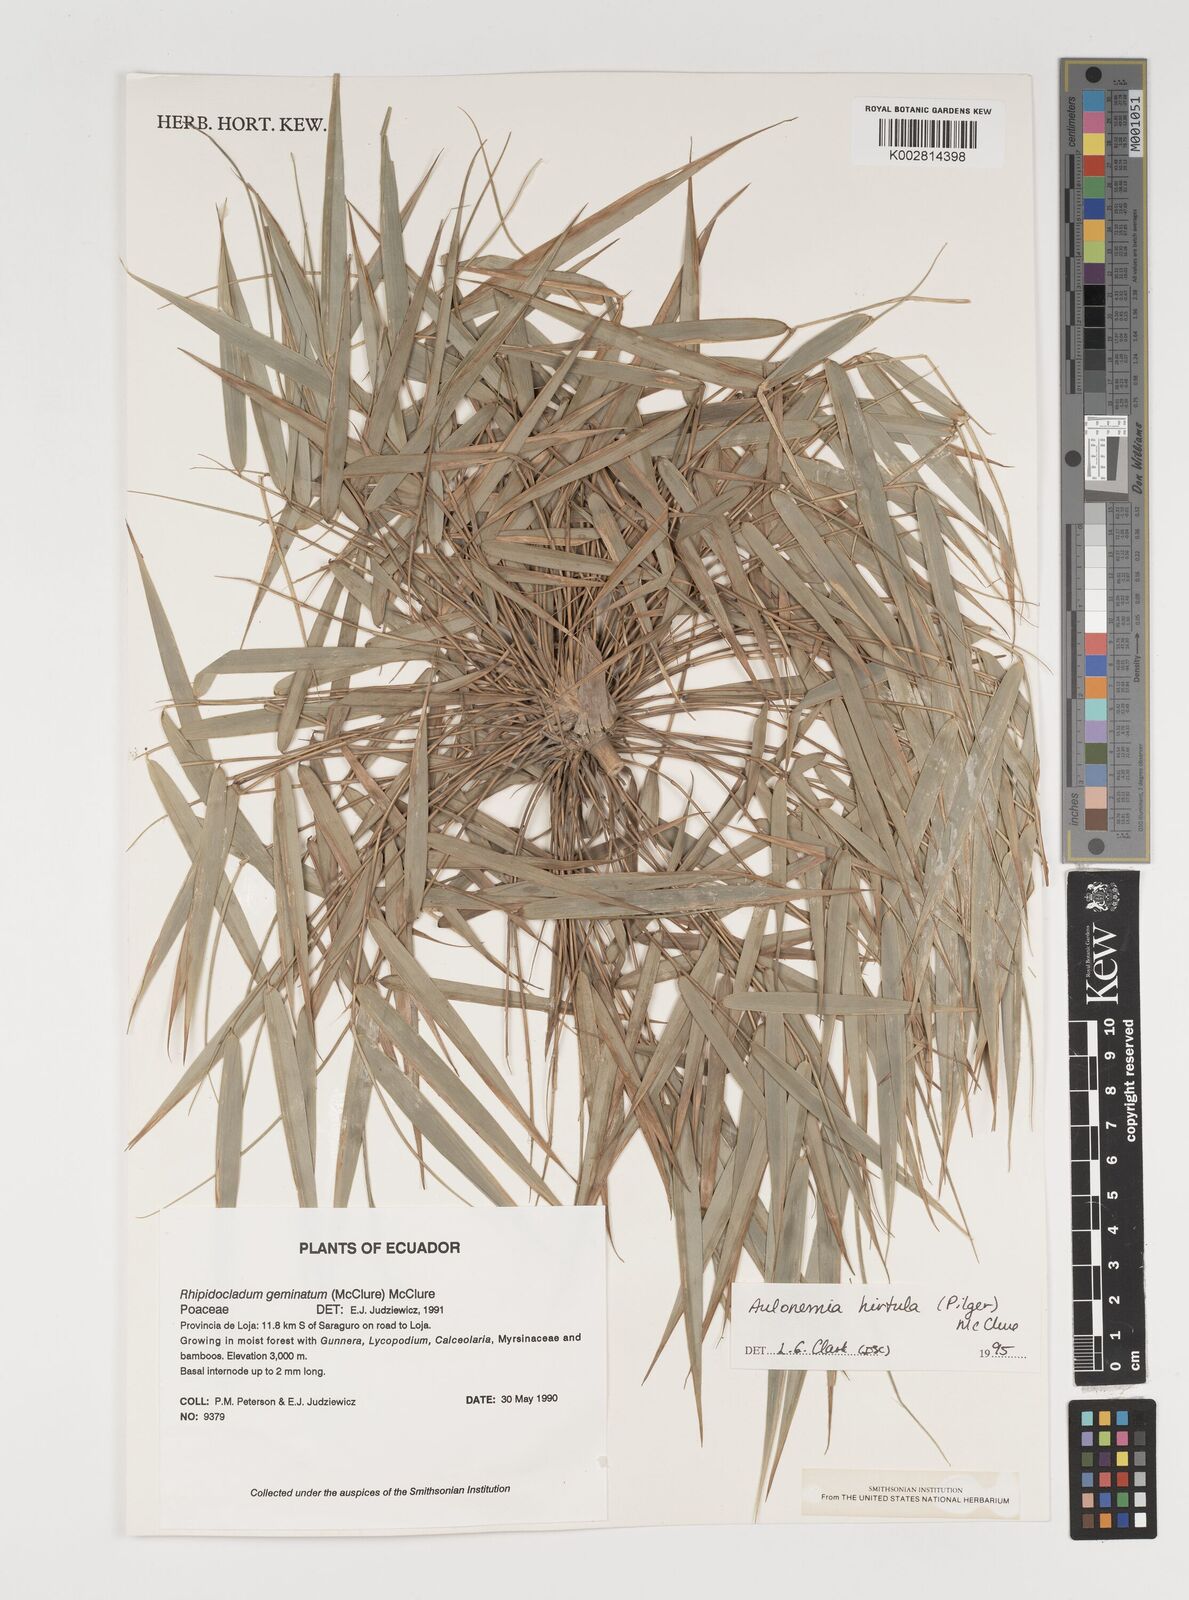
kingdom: Plantae
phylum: Tracheophyta
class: Liliopsida
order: Poales
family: Poaceae
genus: Aulonemia
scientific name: Aulonemia hirtula
